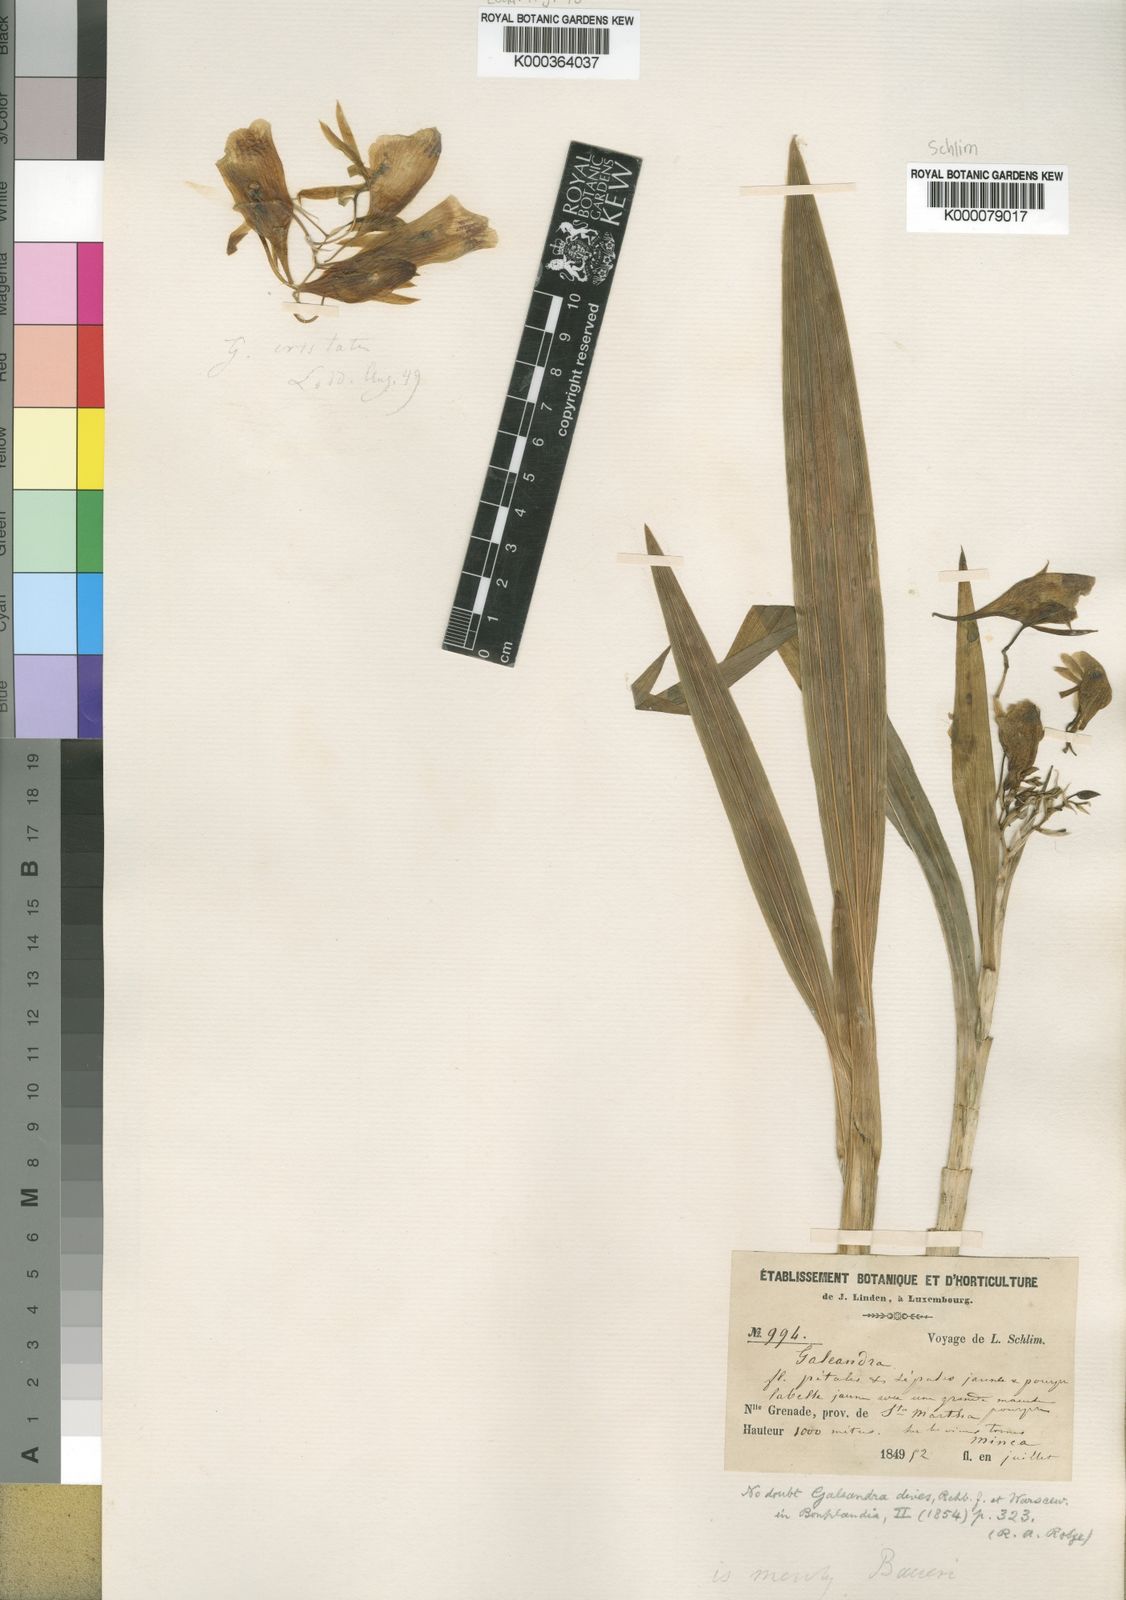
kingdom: Plantae
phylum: Tracheophyta
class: Liliopsida
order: Asparagales
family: Orchidaceae
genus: Galeandra
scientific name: Galeandra dives
